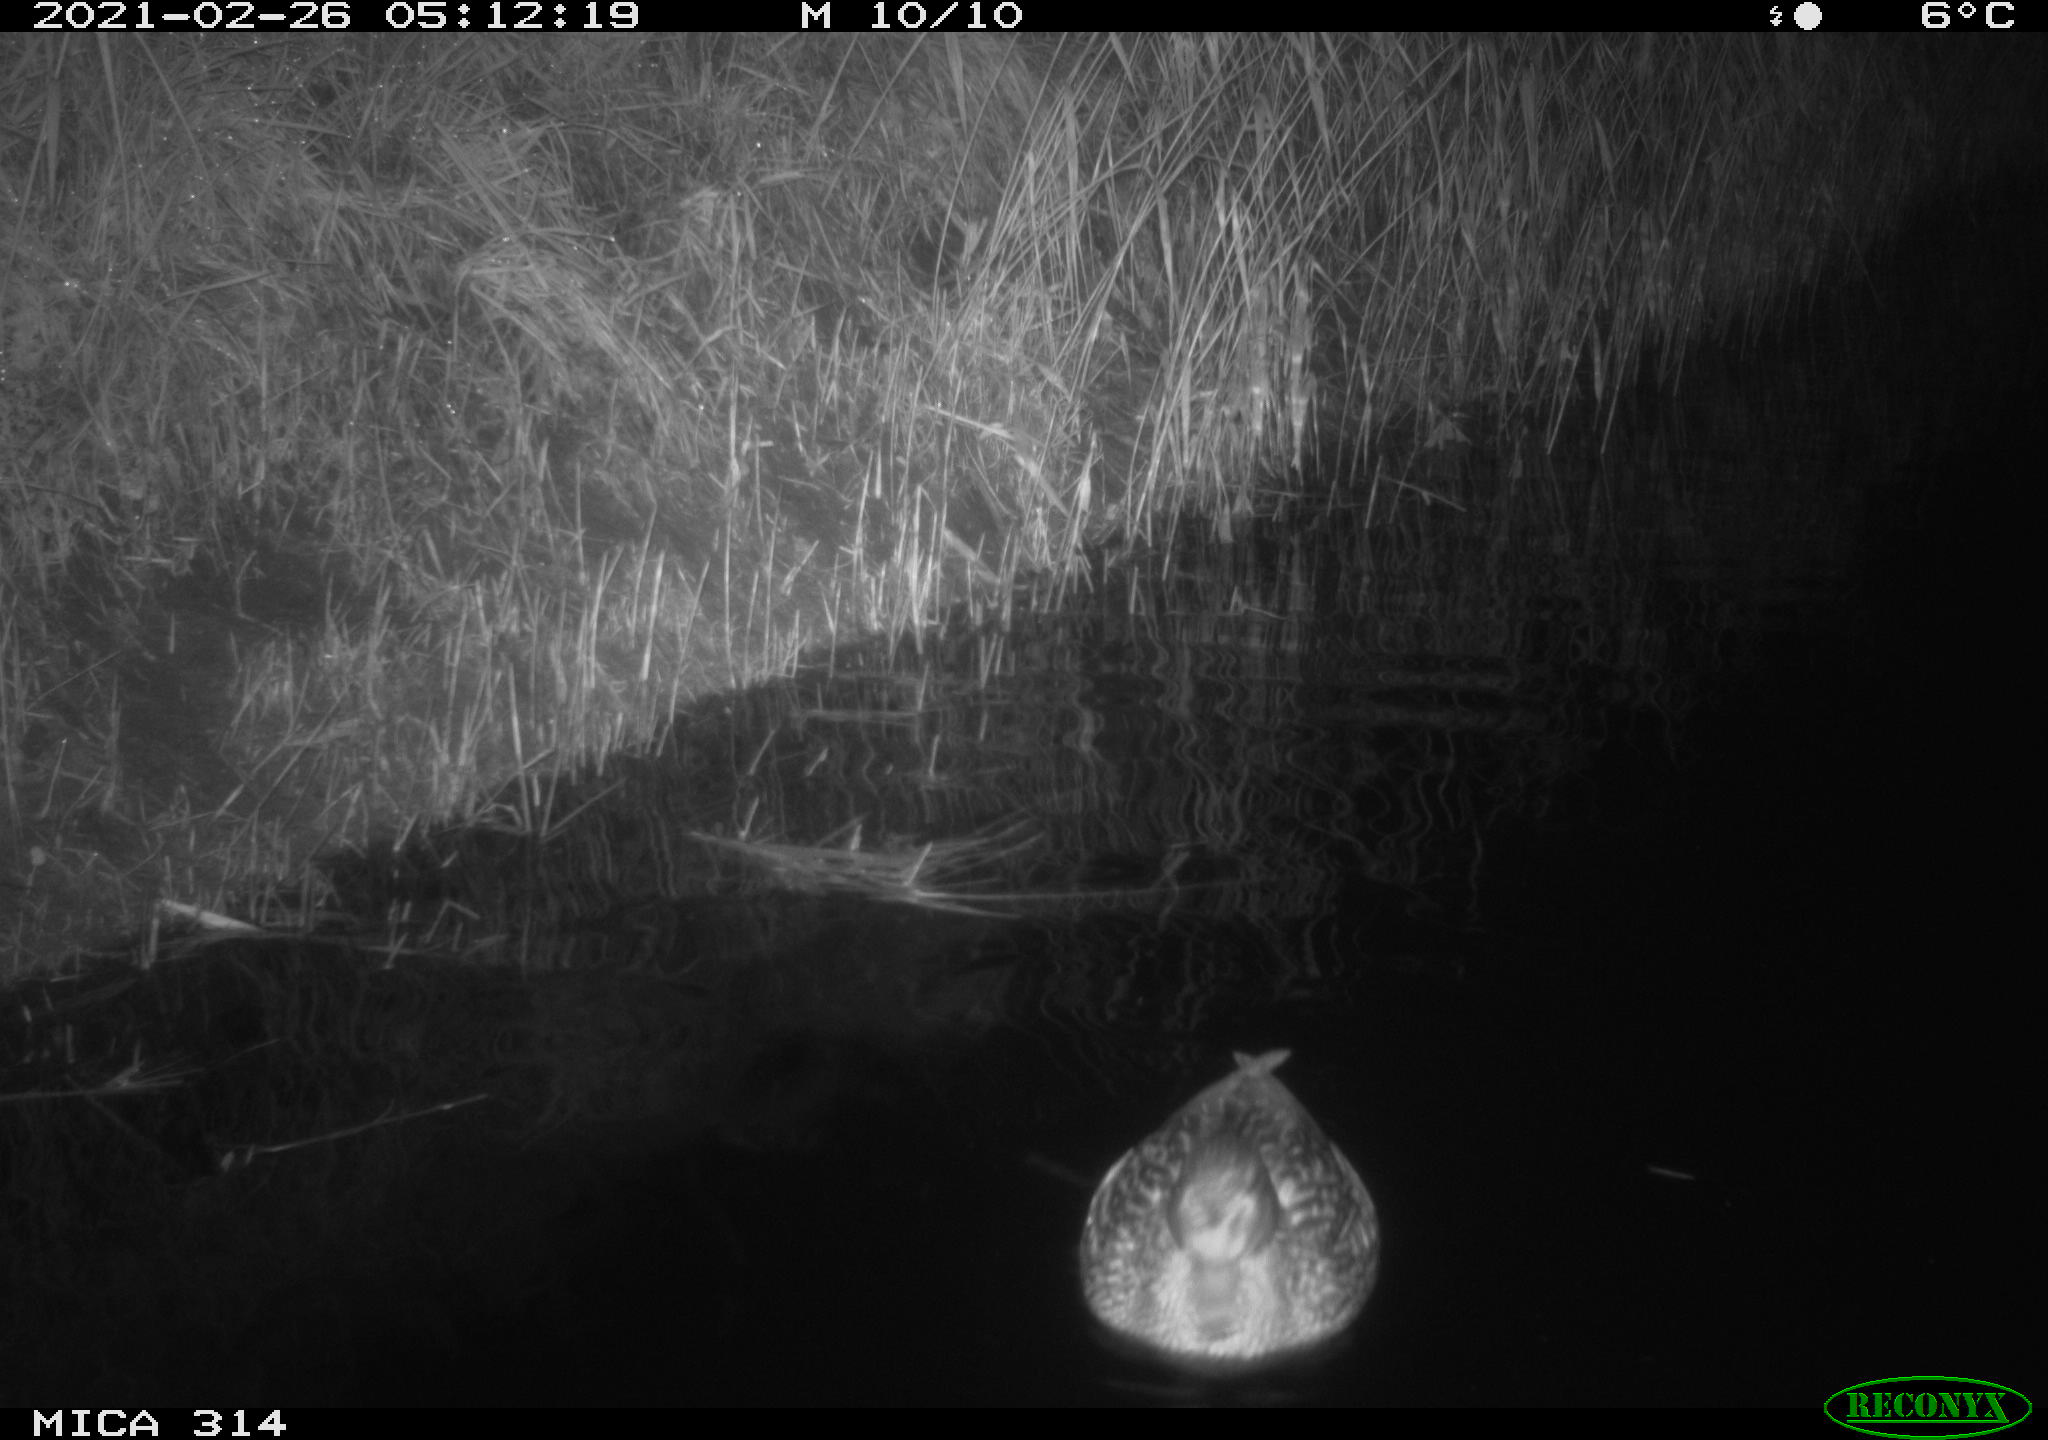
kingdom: Animalia
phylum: Chordata
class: Aves
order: Anseriformes
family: Anatidae
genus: Anas
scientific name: Anas platyrhynchos
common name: Mallard
